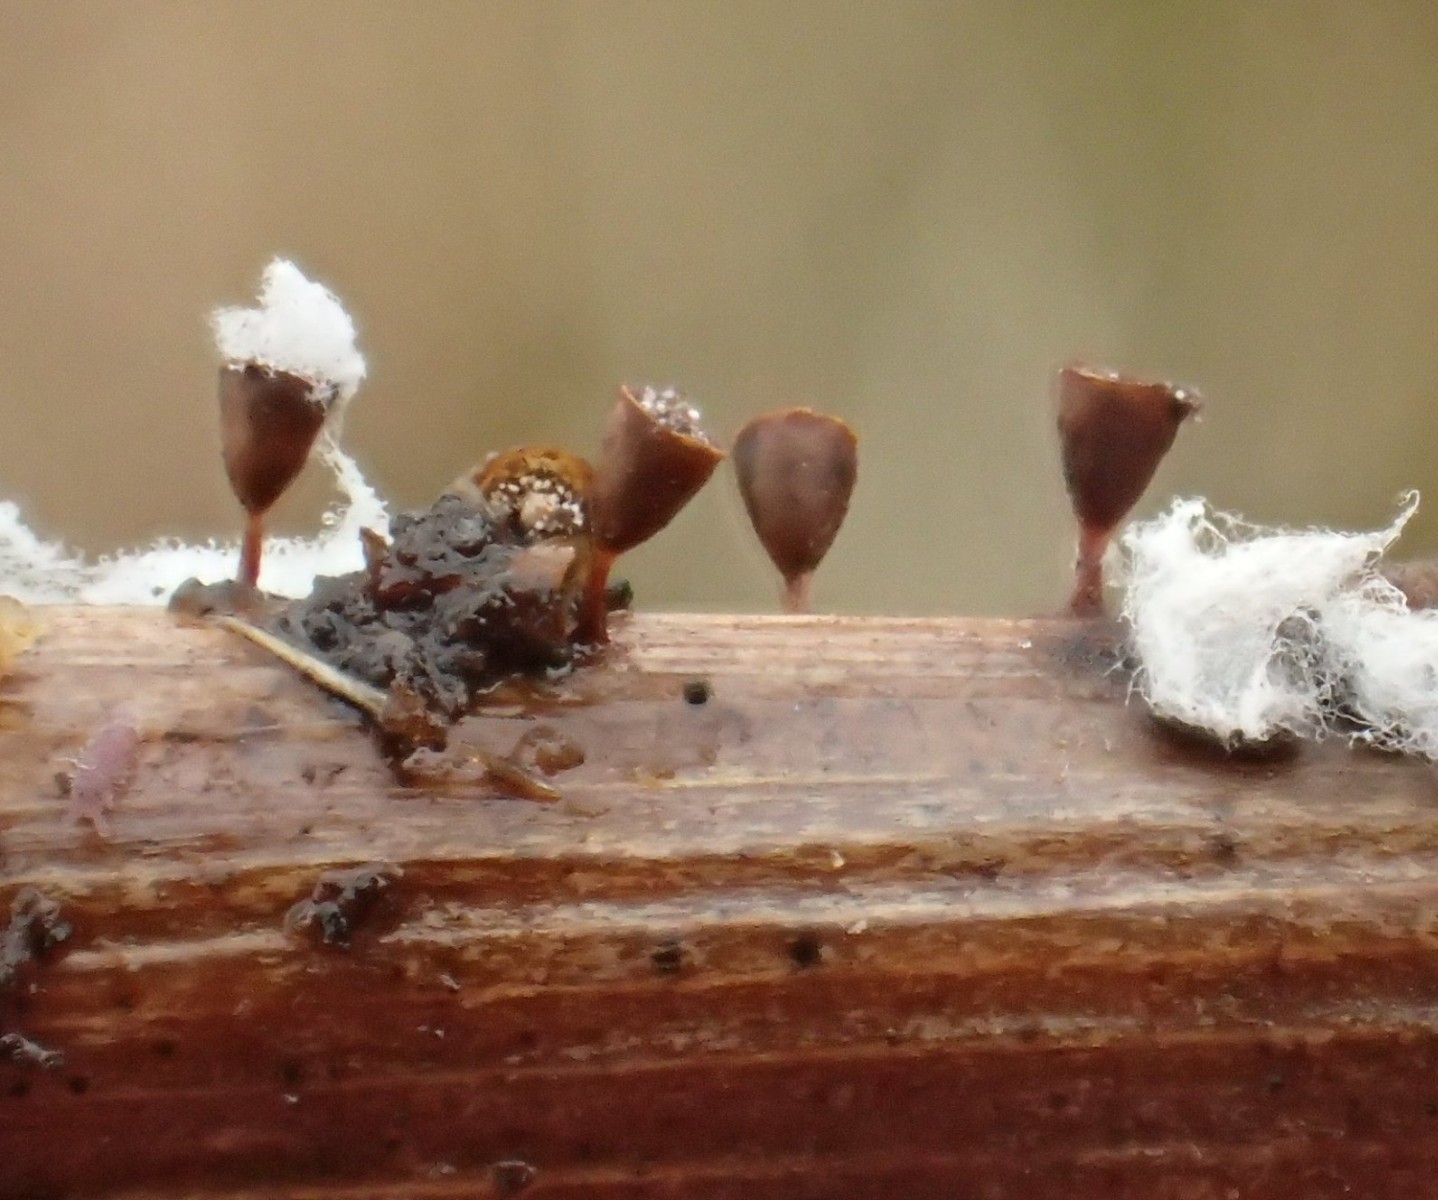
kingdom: Protozoa
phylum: Mycetozoa
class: Myxomycetes
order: Physarales
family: Physaraceae
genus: Craterium
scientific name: Craterium minutum
